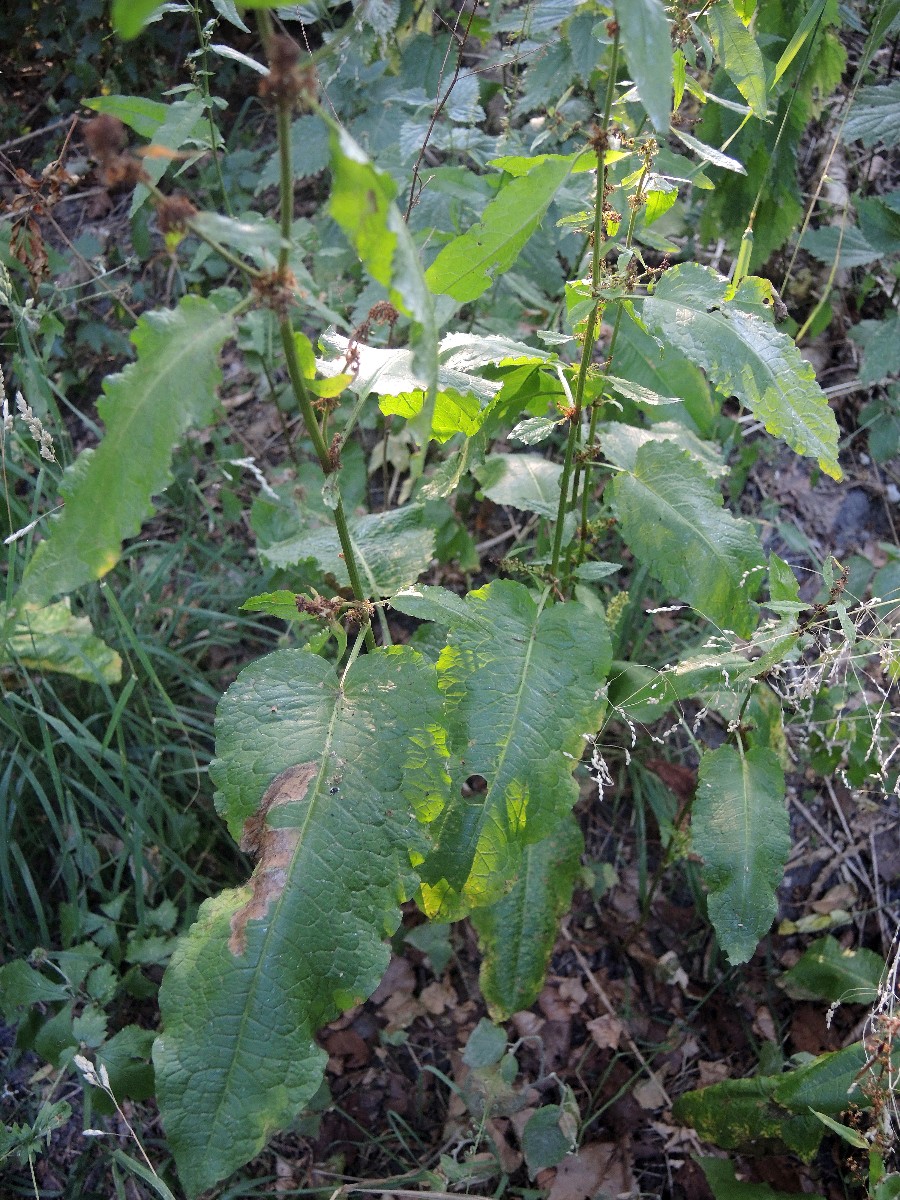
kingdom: Fungi
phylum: Basidiomycota
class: Pucciniomycetes
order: Pucciniales
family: Pucciniaceae
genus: Uromyces
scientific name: Uromyces rumicis
